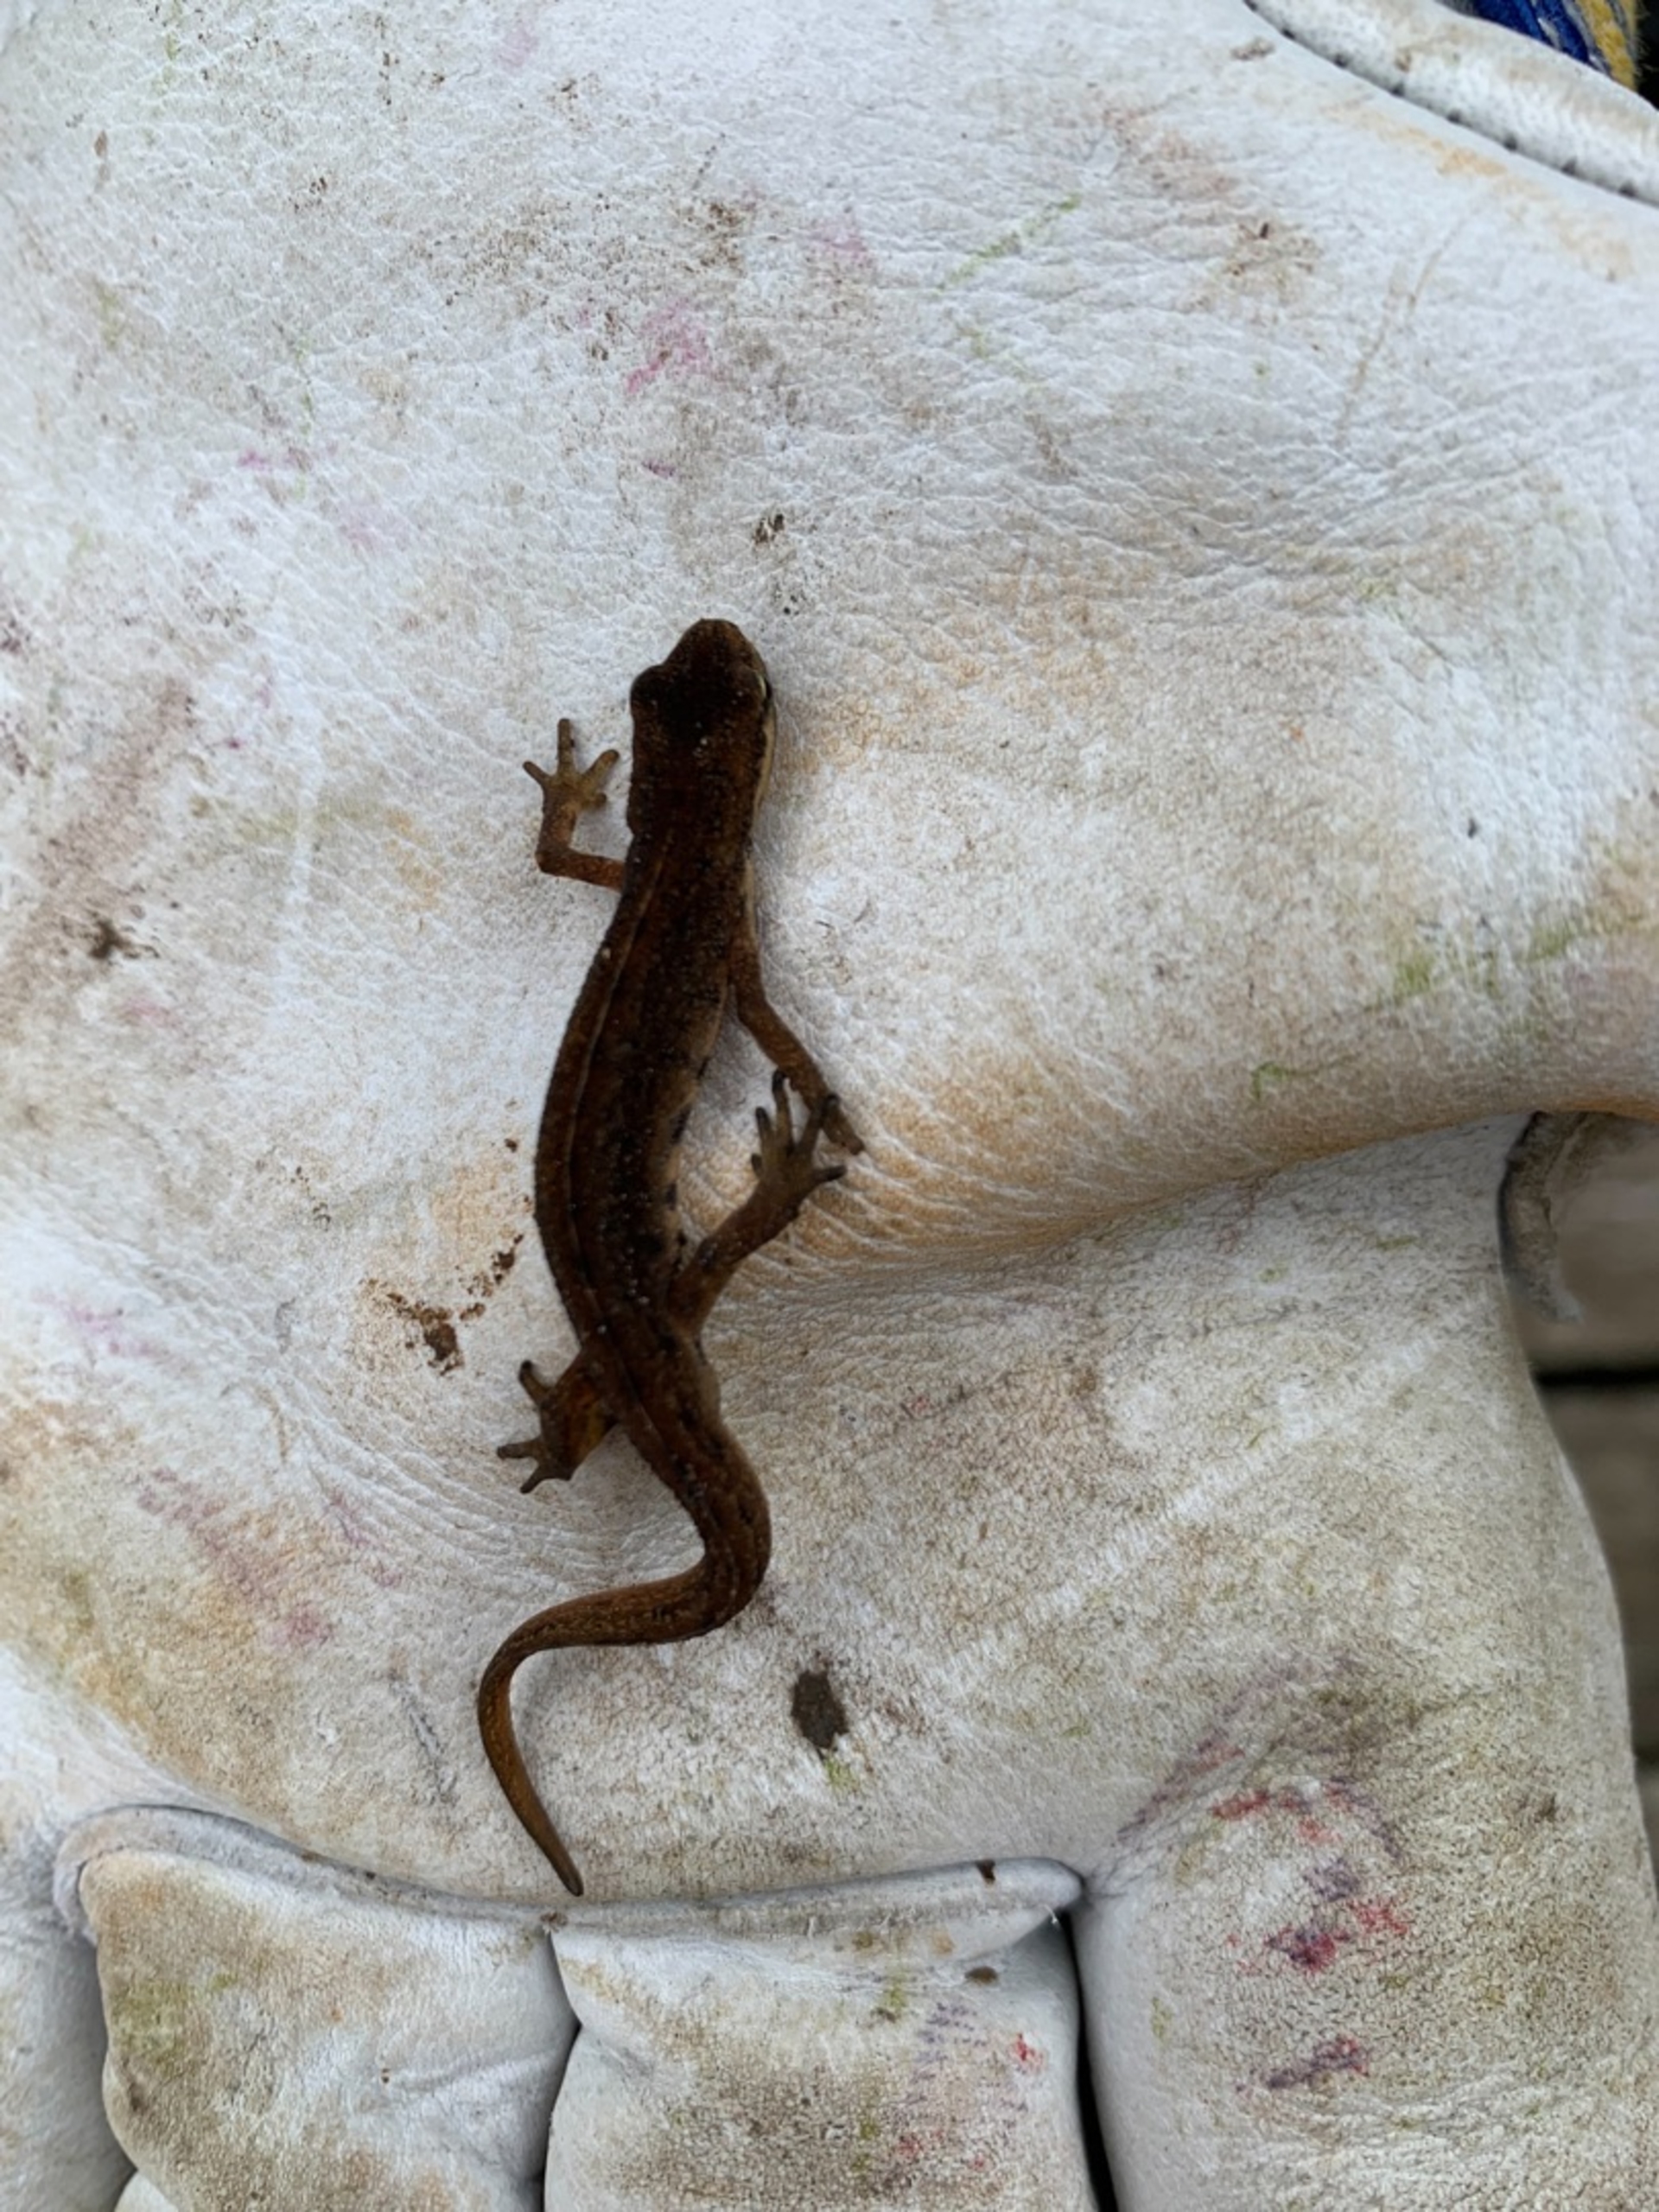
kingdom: Animalia
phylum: Chordata
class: Amphibia
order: Caudata
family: Salamandridae
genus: Lissotriton
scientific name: Lissotriton vulgaris
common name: Lille vandsalamander
